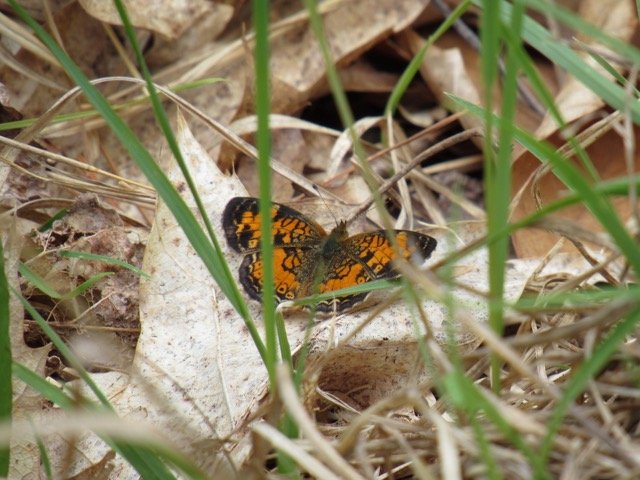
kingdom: Animalia
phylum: Arthropoda
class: Insecta
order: Lepidoptera
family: Nymphalidae
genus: Phyciodes
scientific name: Phyciodes tharos
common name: Pearl Crescent
